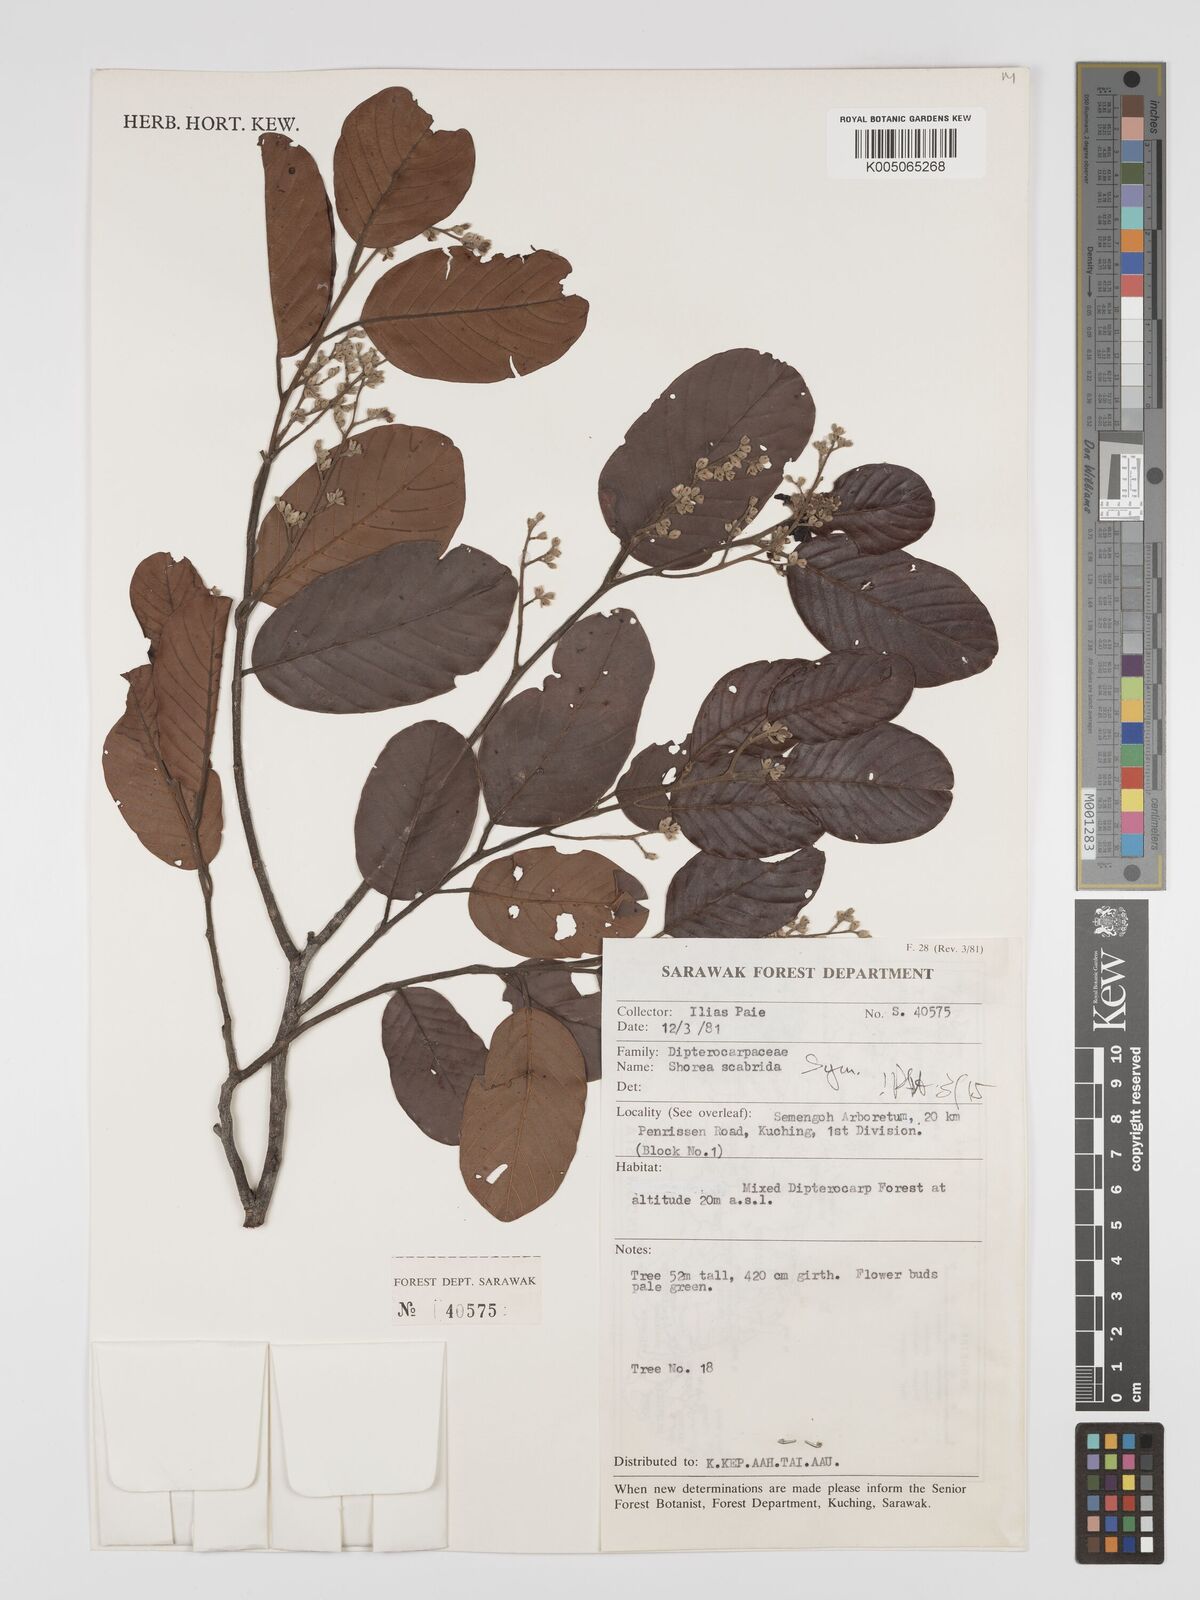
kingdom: Plantae
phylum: Tracheophyta
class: Magnoliopsida
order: Malvales
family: Dipterocarpaceae
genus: Shorea
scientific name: Shorea scabrida
